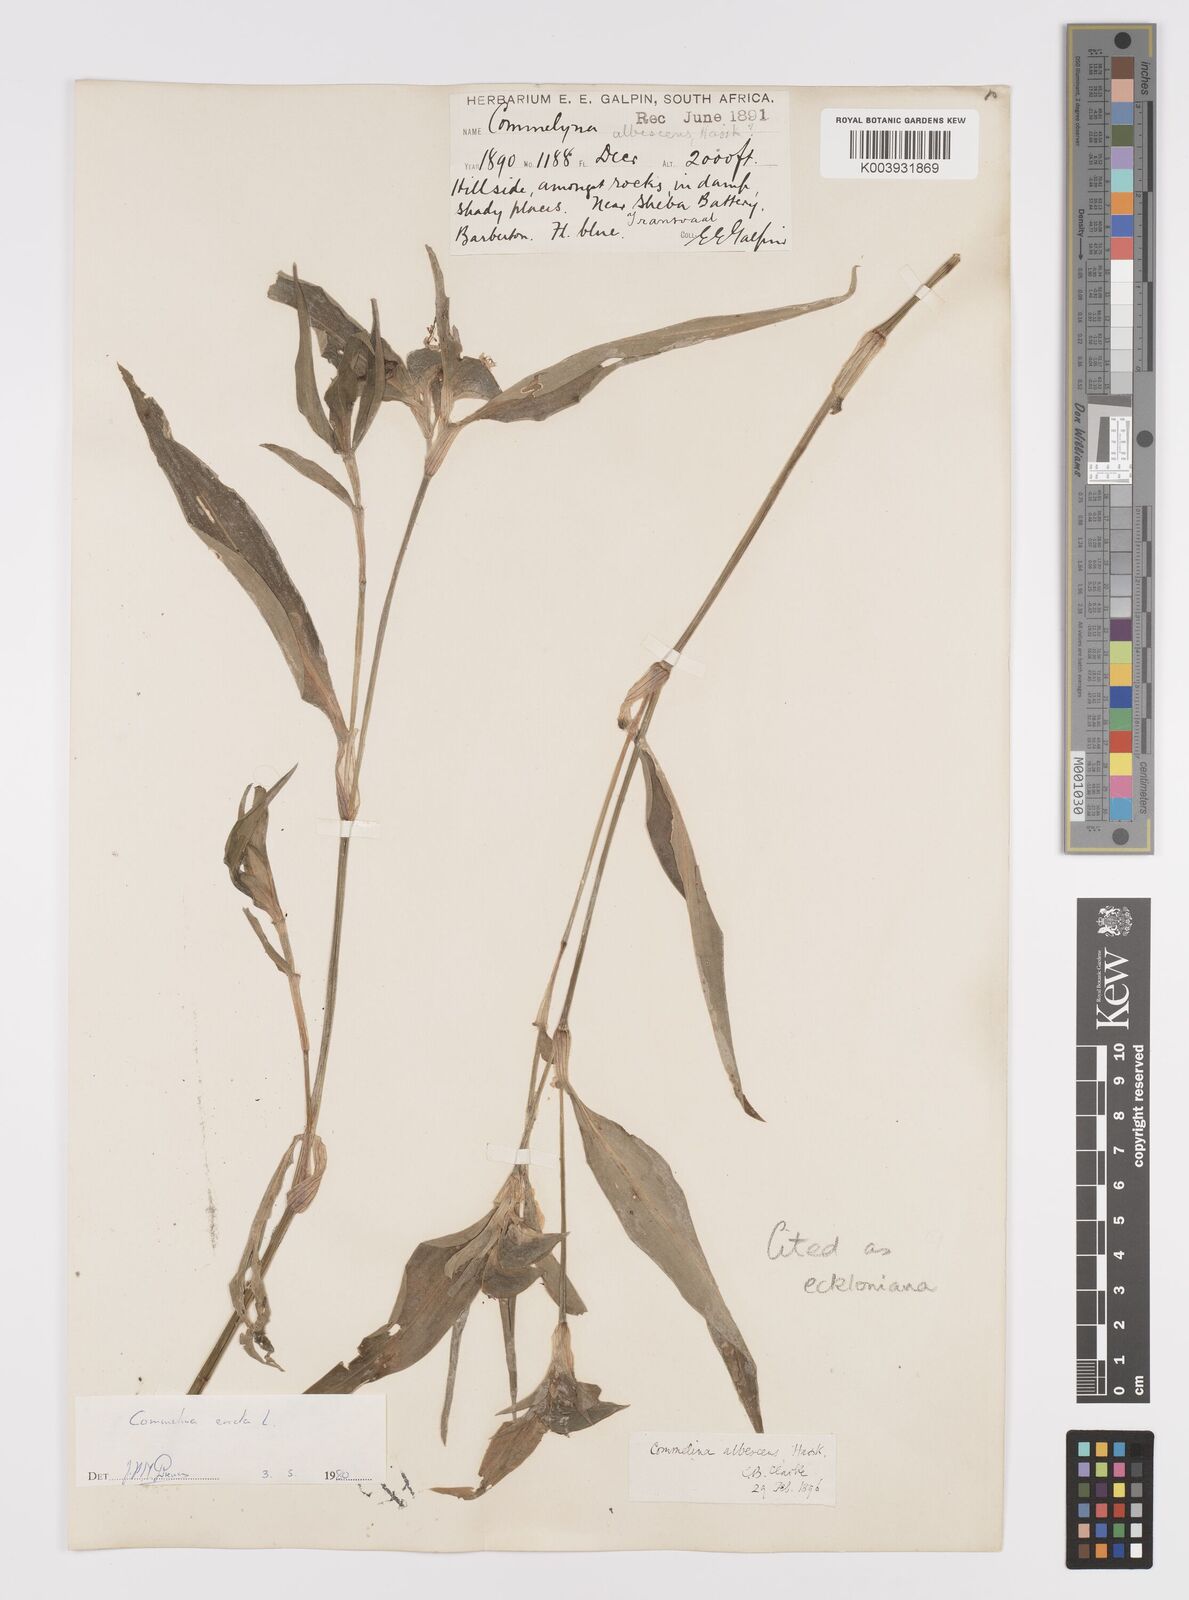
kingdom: Plantae
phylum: Tracheophyta
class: Liliopsida
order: Commelinales
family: Commelinaceae
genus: Commelina
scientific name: Commelina eckloniana
